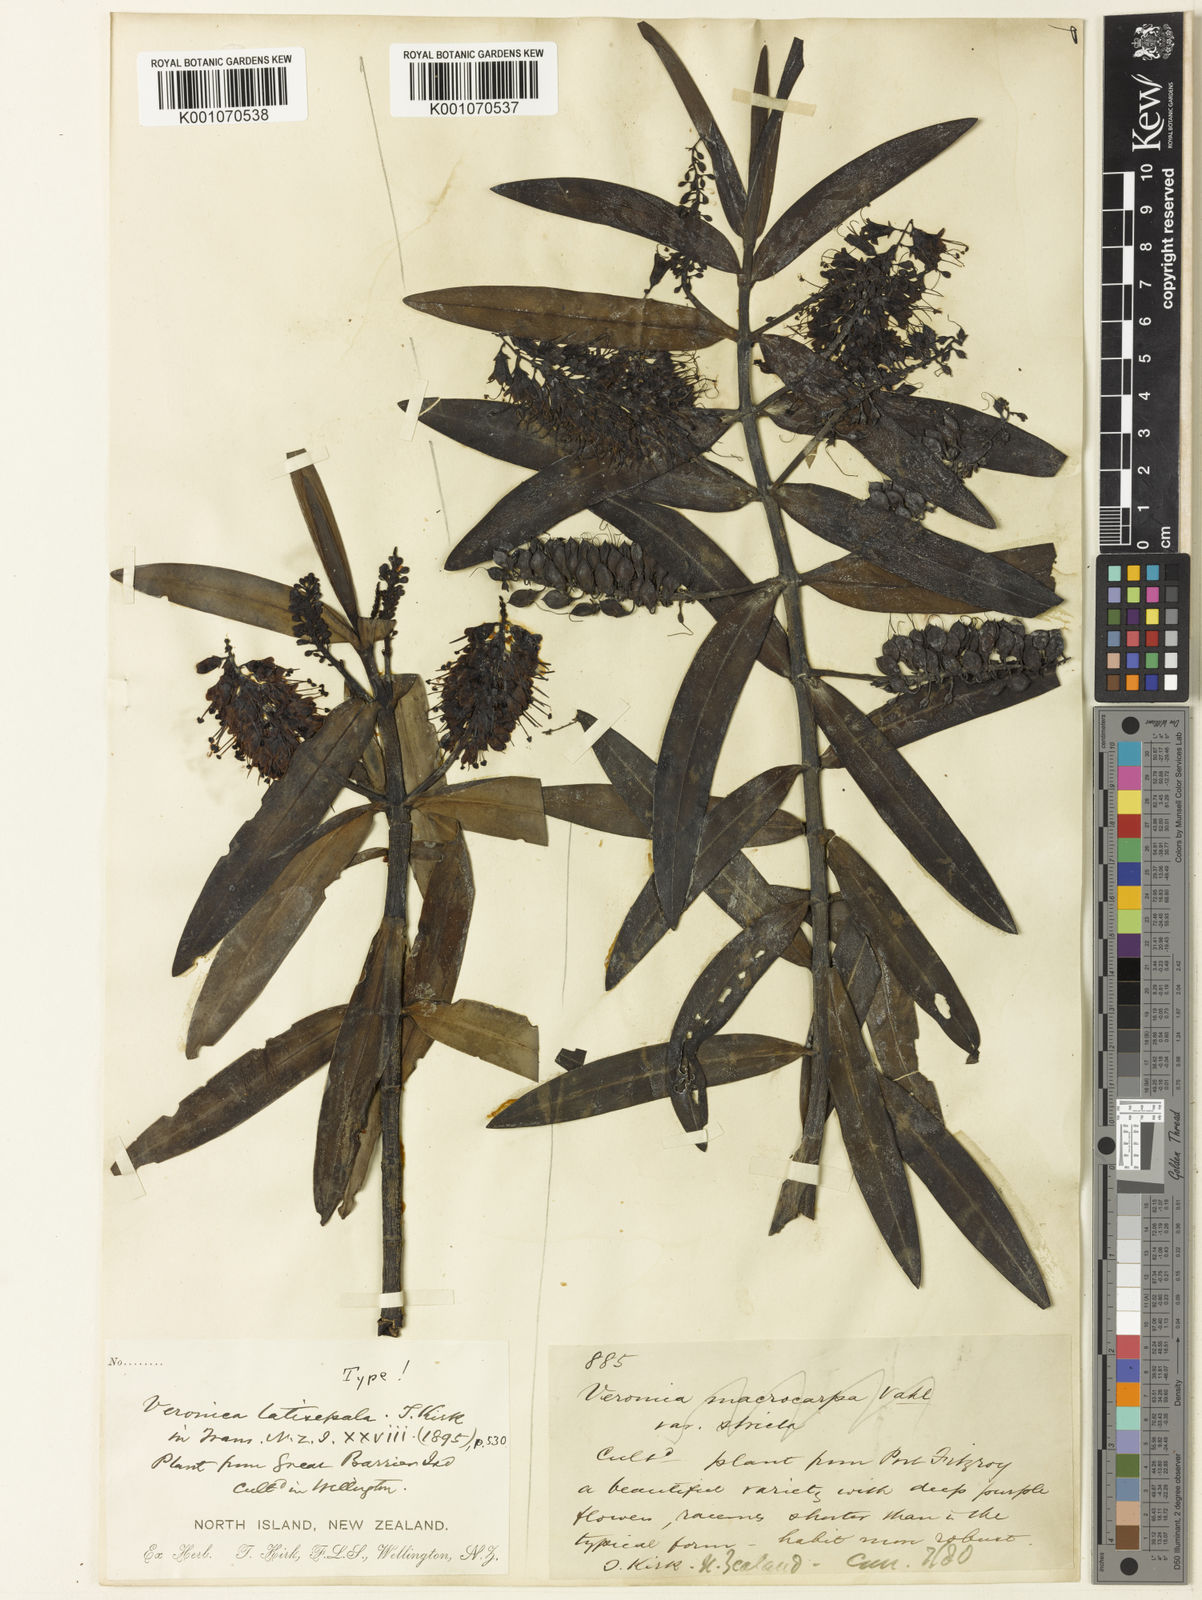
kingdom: Plantae
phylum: Tracheophyta
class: Magnoliopsida
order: Lamiales
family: Plantaginaceae
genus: Veronica
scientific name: Veronica
